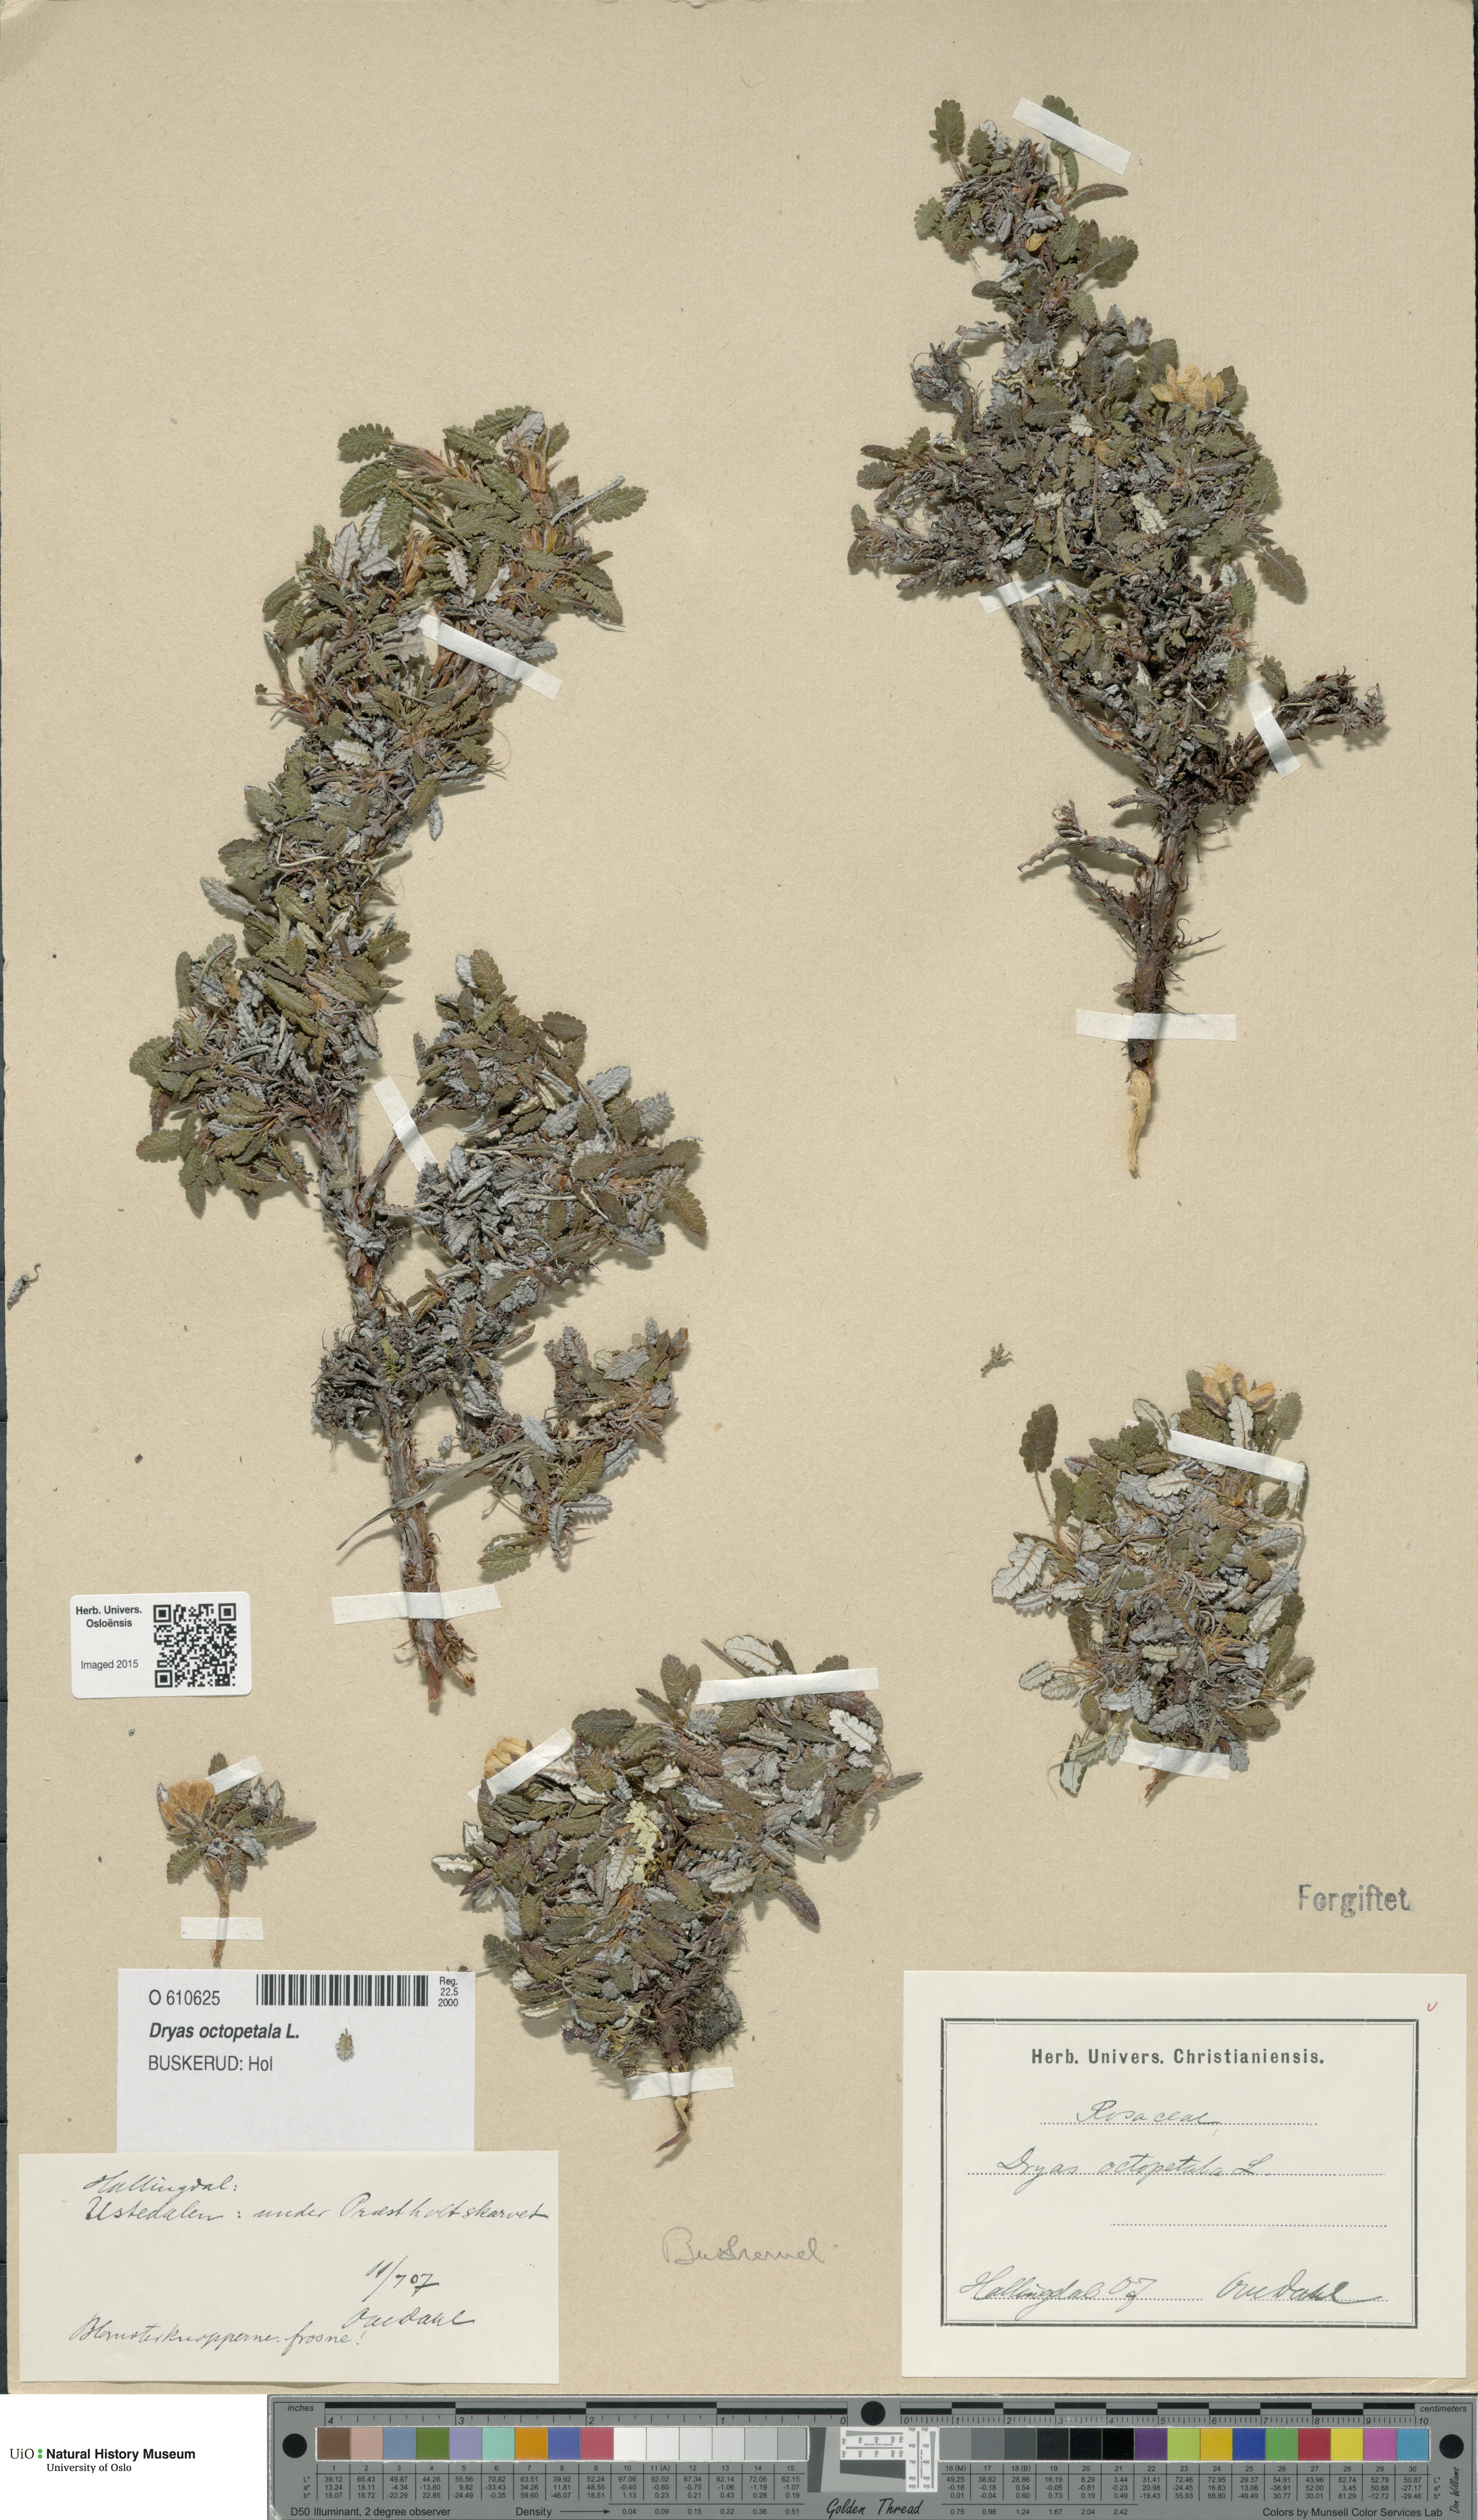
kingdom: Plantae
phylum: Tracheophyta
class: Magnoliopsida
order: Rosales
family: Rosaceae
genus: Dryas
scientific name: Dryas octopetala
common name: Eight-petal mountain-avens
